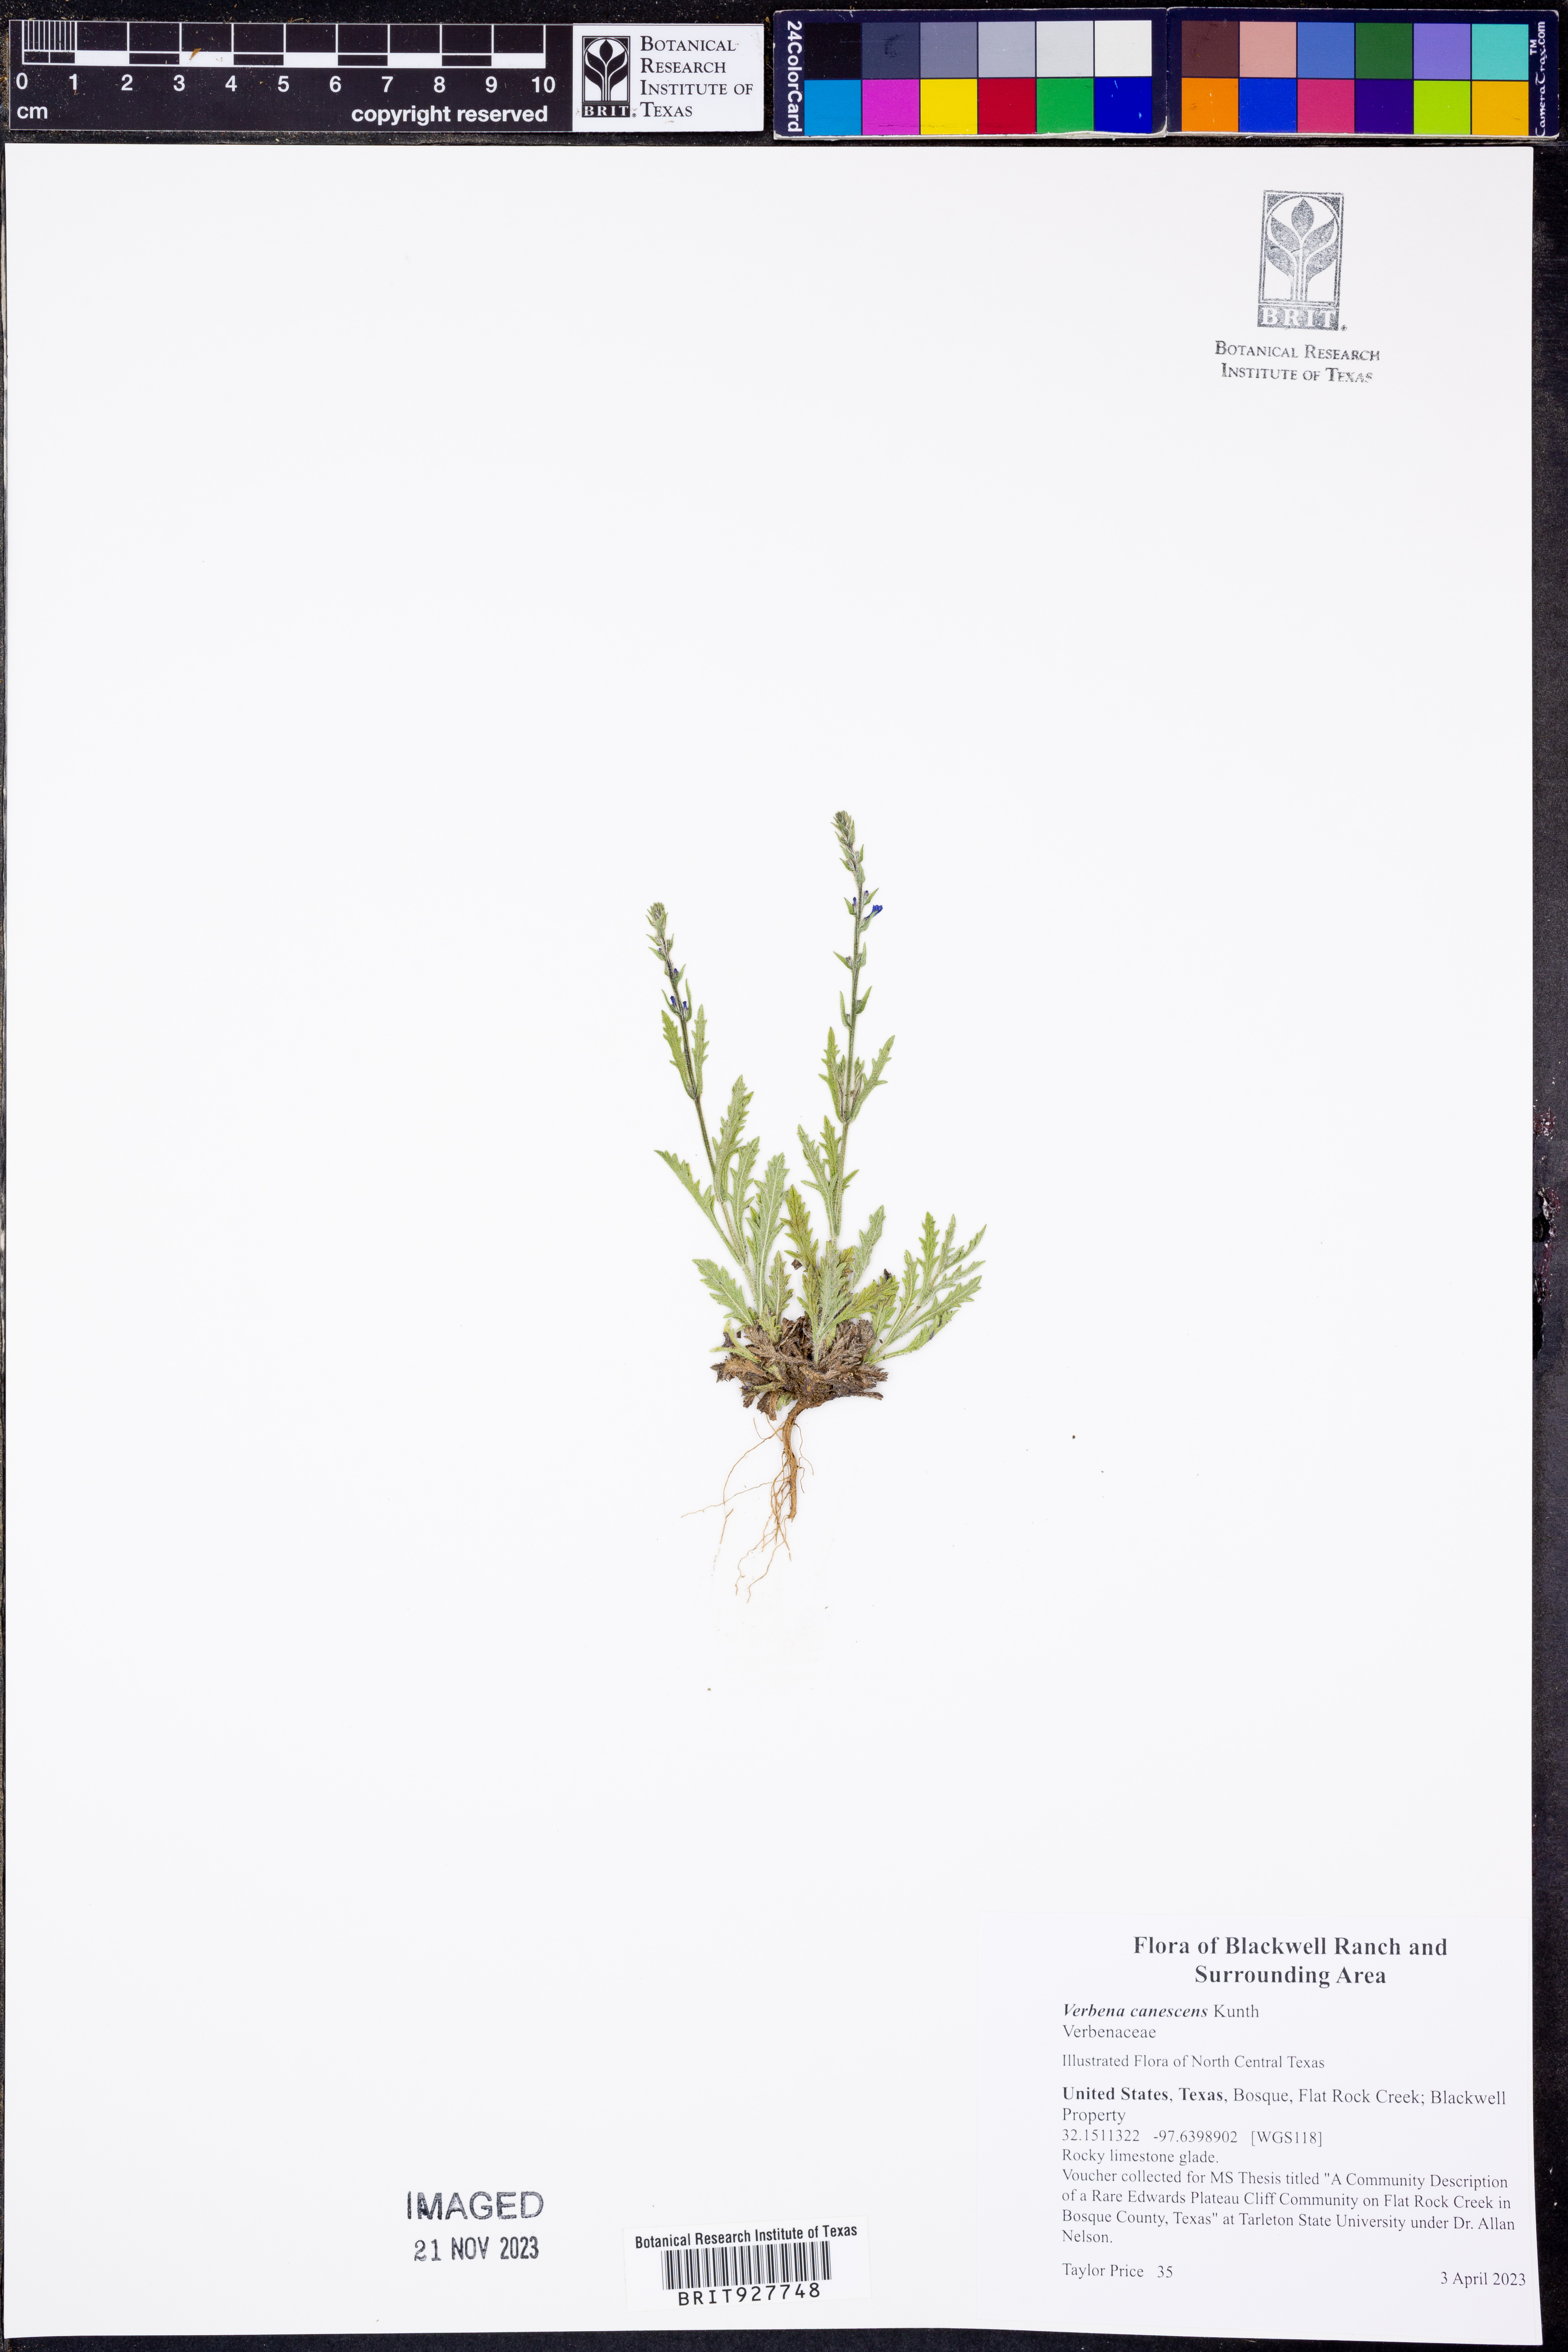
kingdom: Plantae
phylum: Tracheophyta
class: Magnoliopsida
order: Lamiales
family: Verbenaceae
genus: Verbena
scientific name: Verbena canescens
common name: Gray vervain
